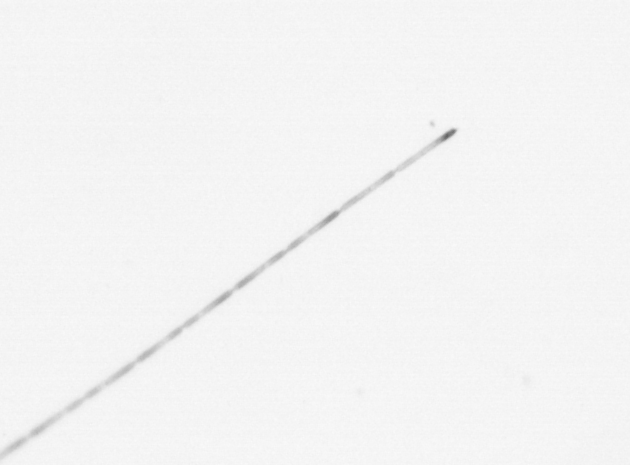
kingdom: Chromista
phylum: Ochrophyta
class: Bacillariophyceae
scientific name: Bacillariophyceae
